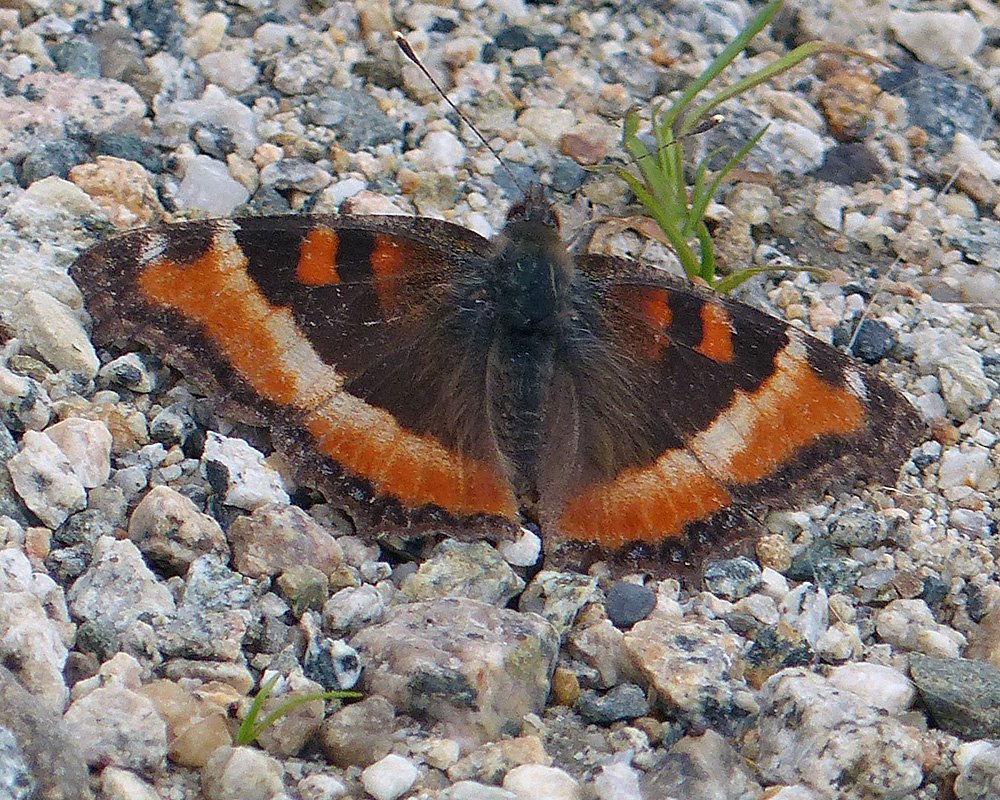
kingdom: Animalia
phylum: Arthropoda
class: Insecta
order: Lepidoptera
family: Nymphalidae
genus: Aglais
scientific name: Aglais milberti
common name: Milbert's Tortoiseshell
